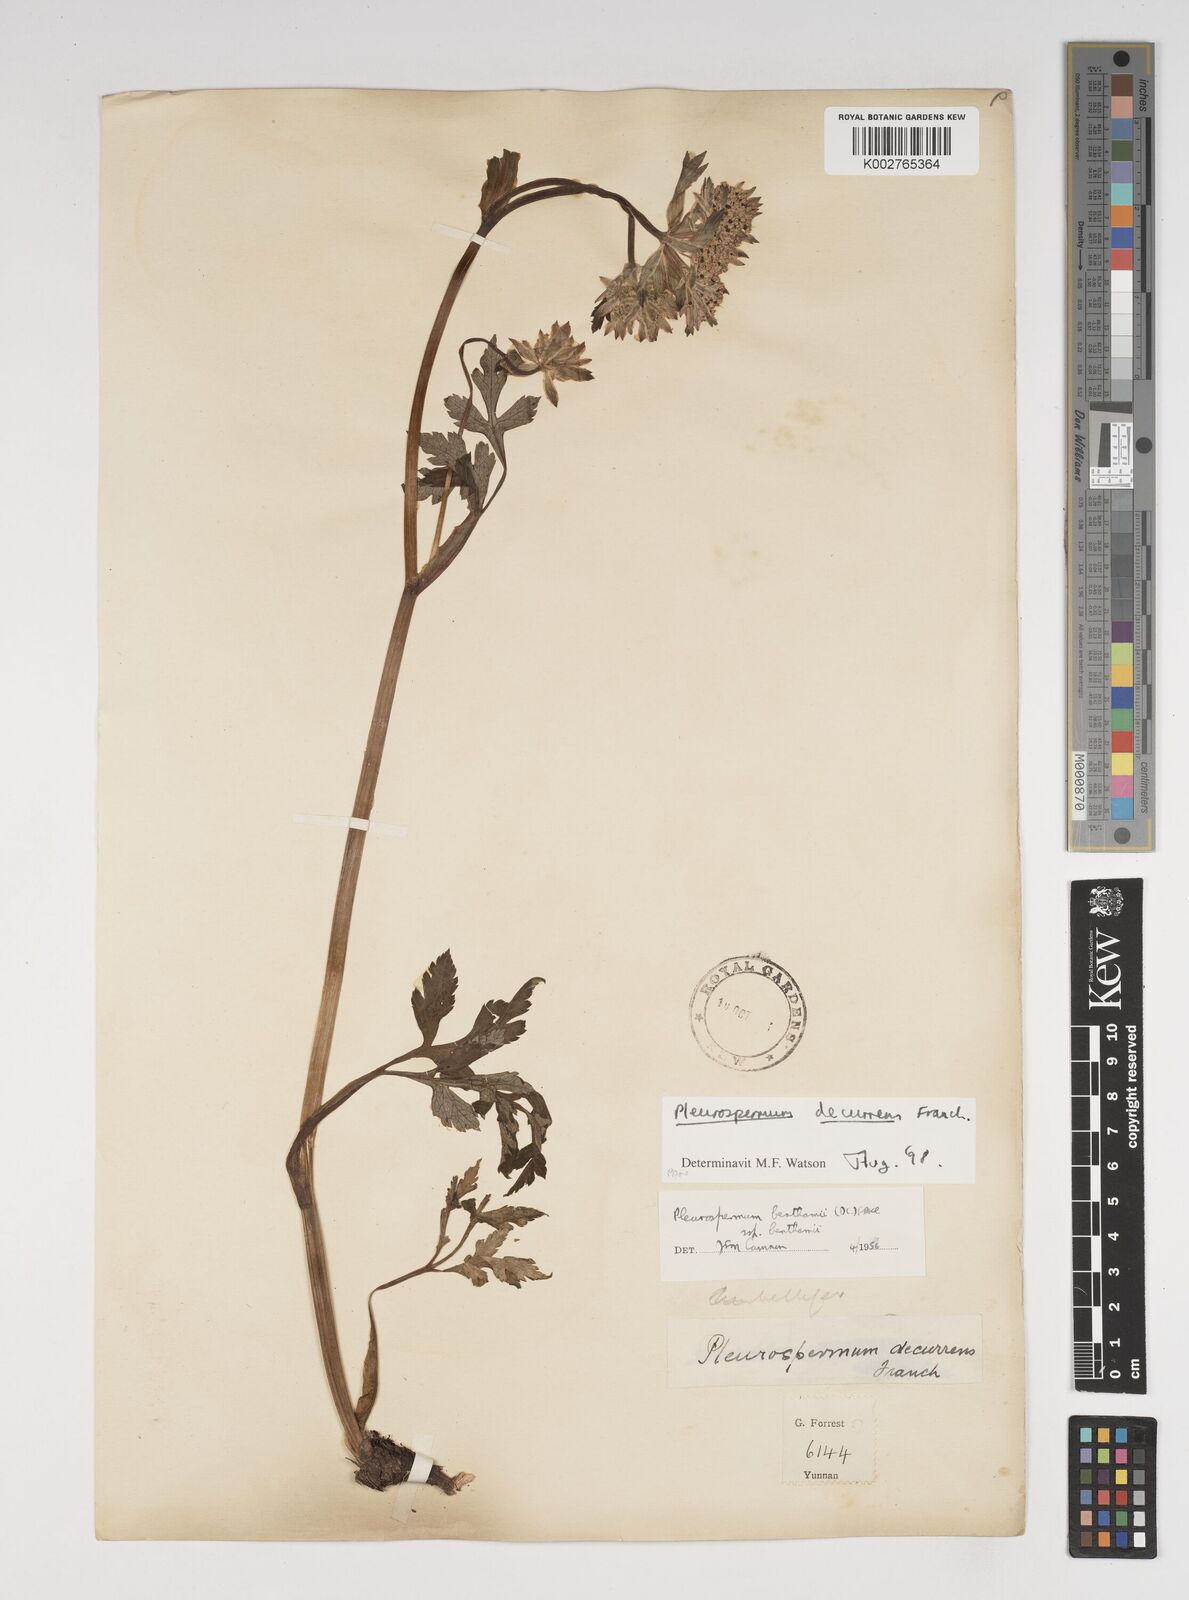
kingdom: Plantae
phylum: Tracheophyta
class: Magnoliopsida
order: Apiales
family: Apiaceae
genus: Hymenidium
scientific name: Hymenidium decurrens
